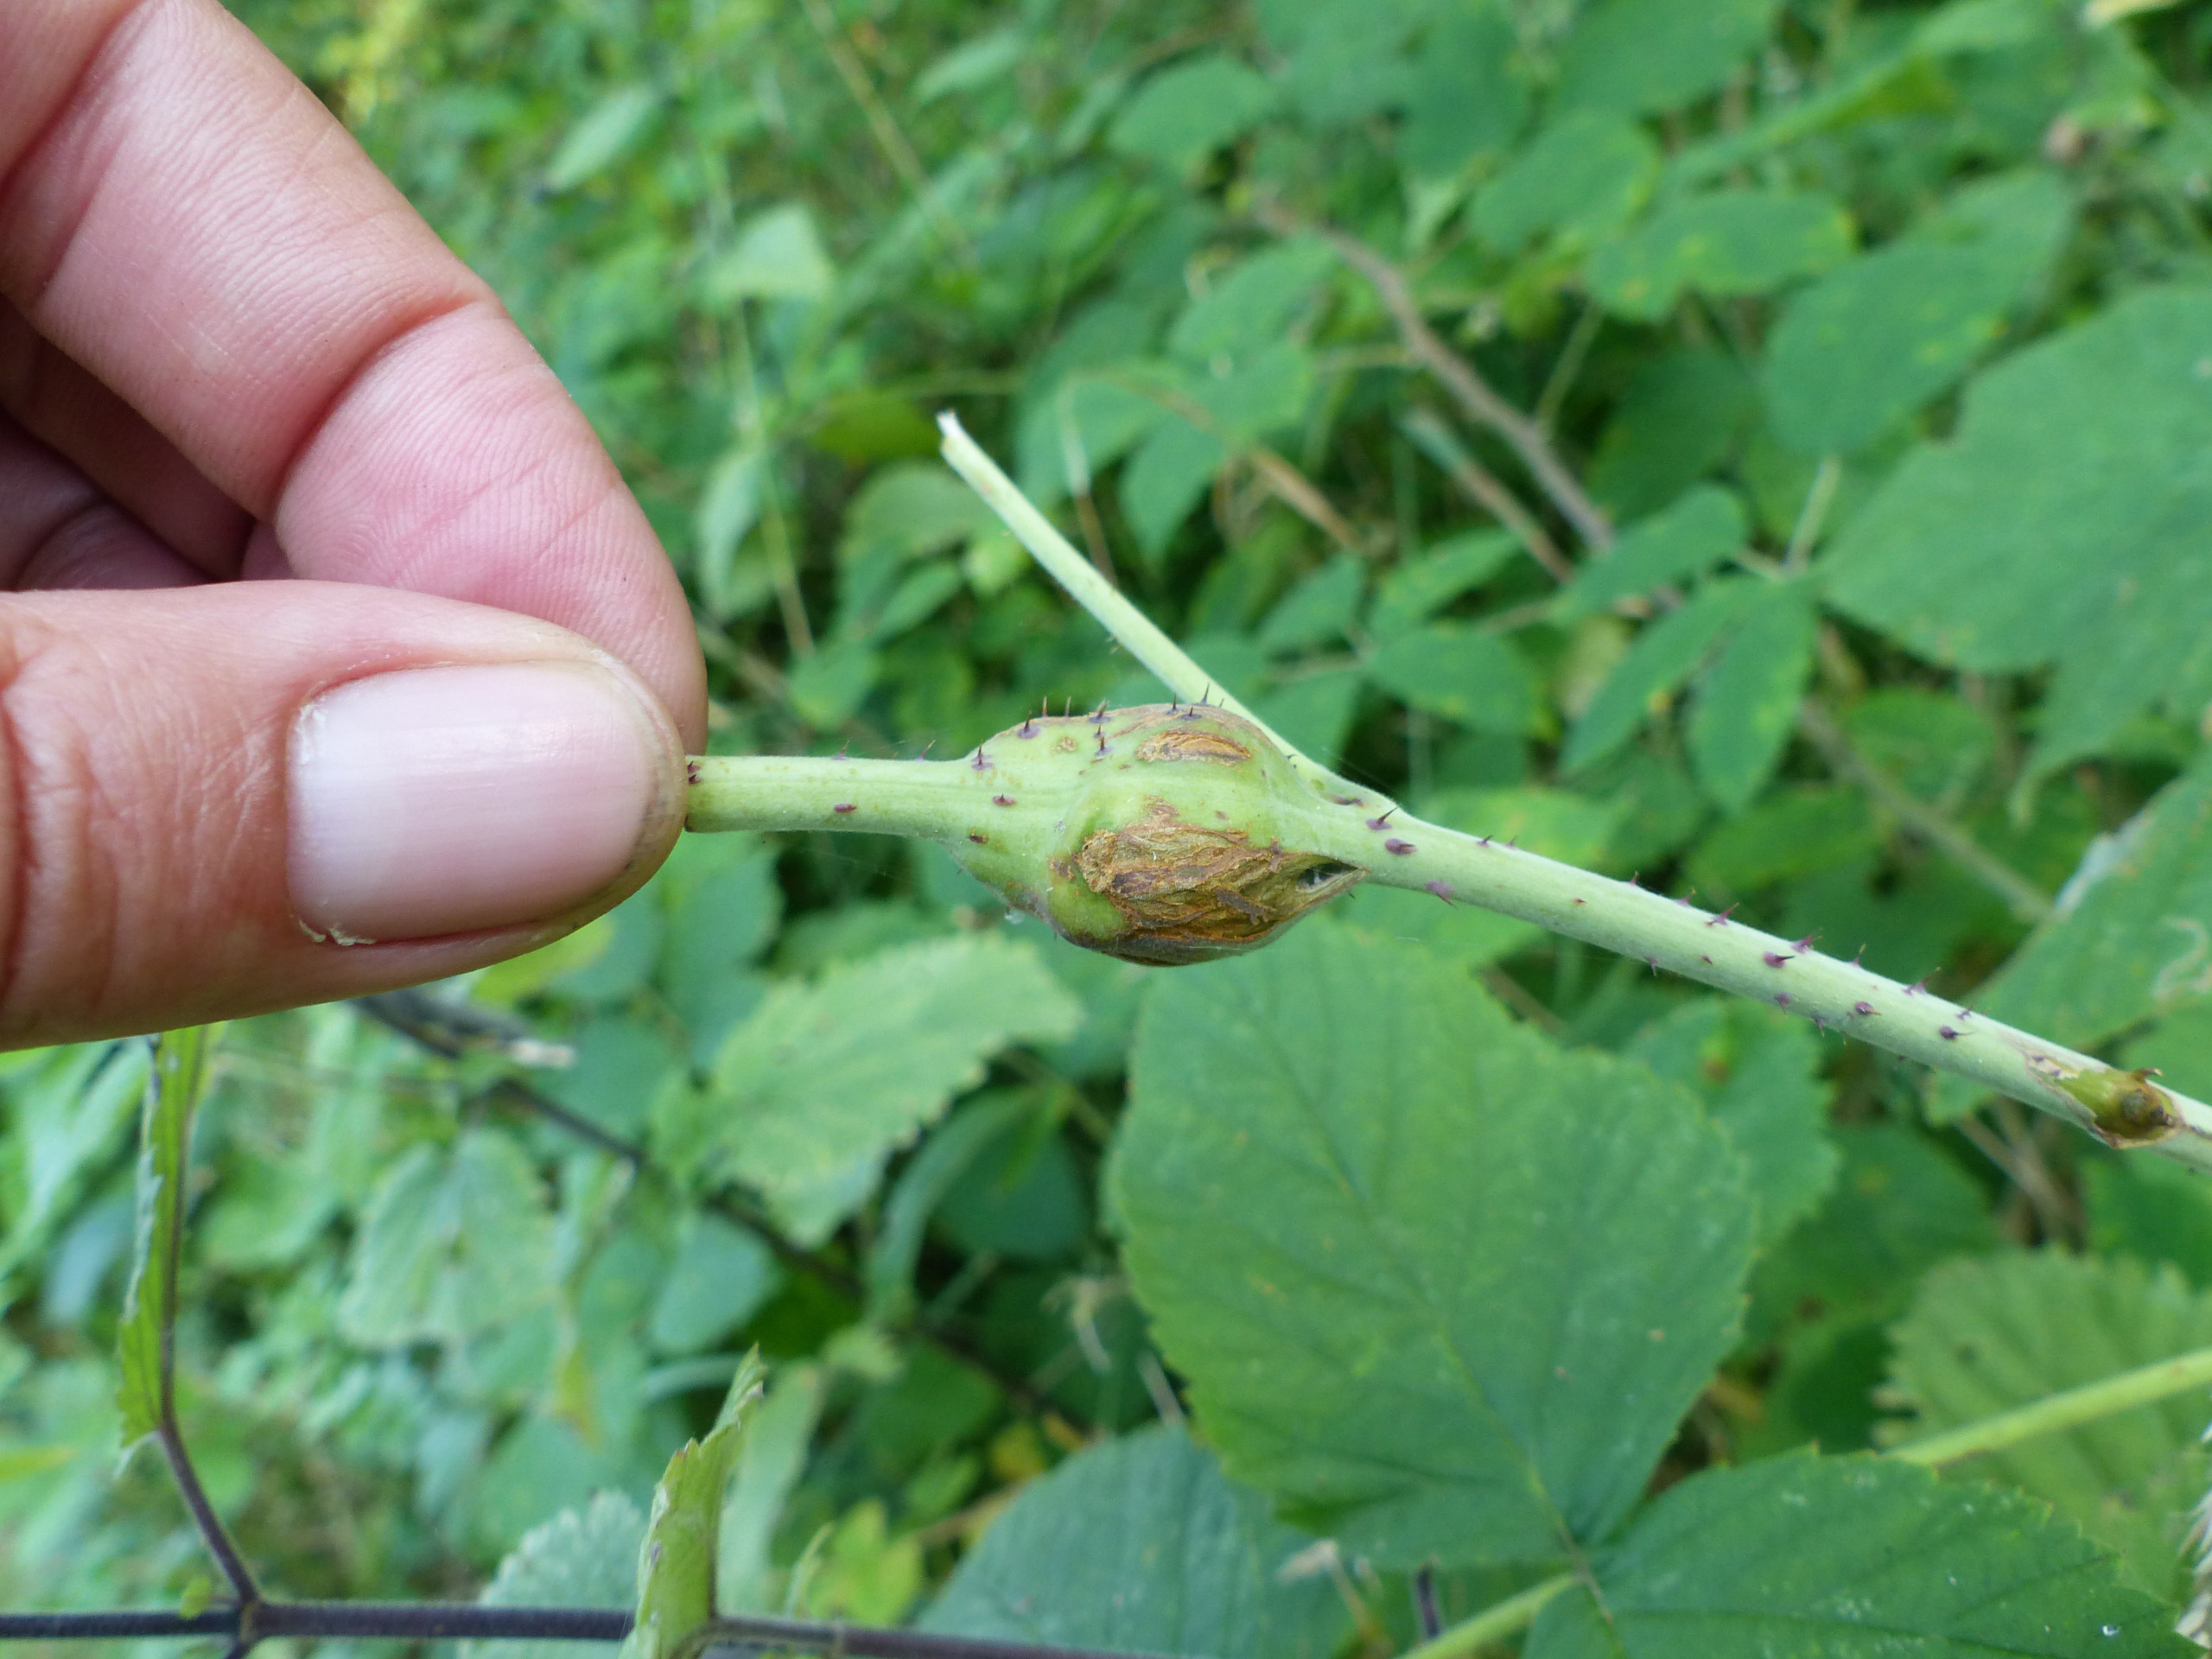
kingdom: Animalia
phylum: Arthropoda
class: Insecta
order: Diptera
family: Cecidomyiidae
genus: Lasioptera
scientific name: Lasioptera rubi
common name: Hindbærstængelgalmyg
